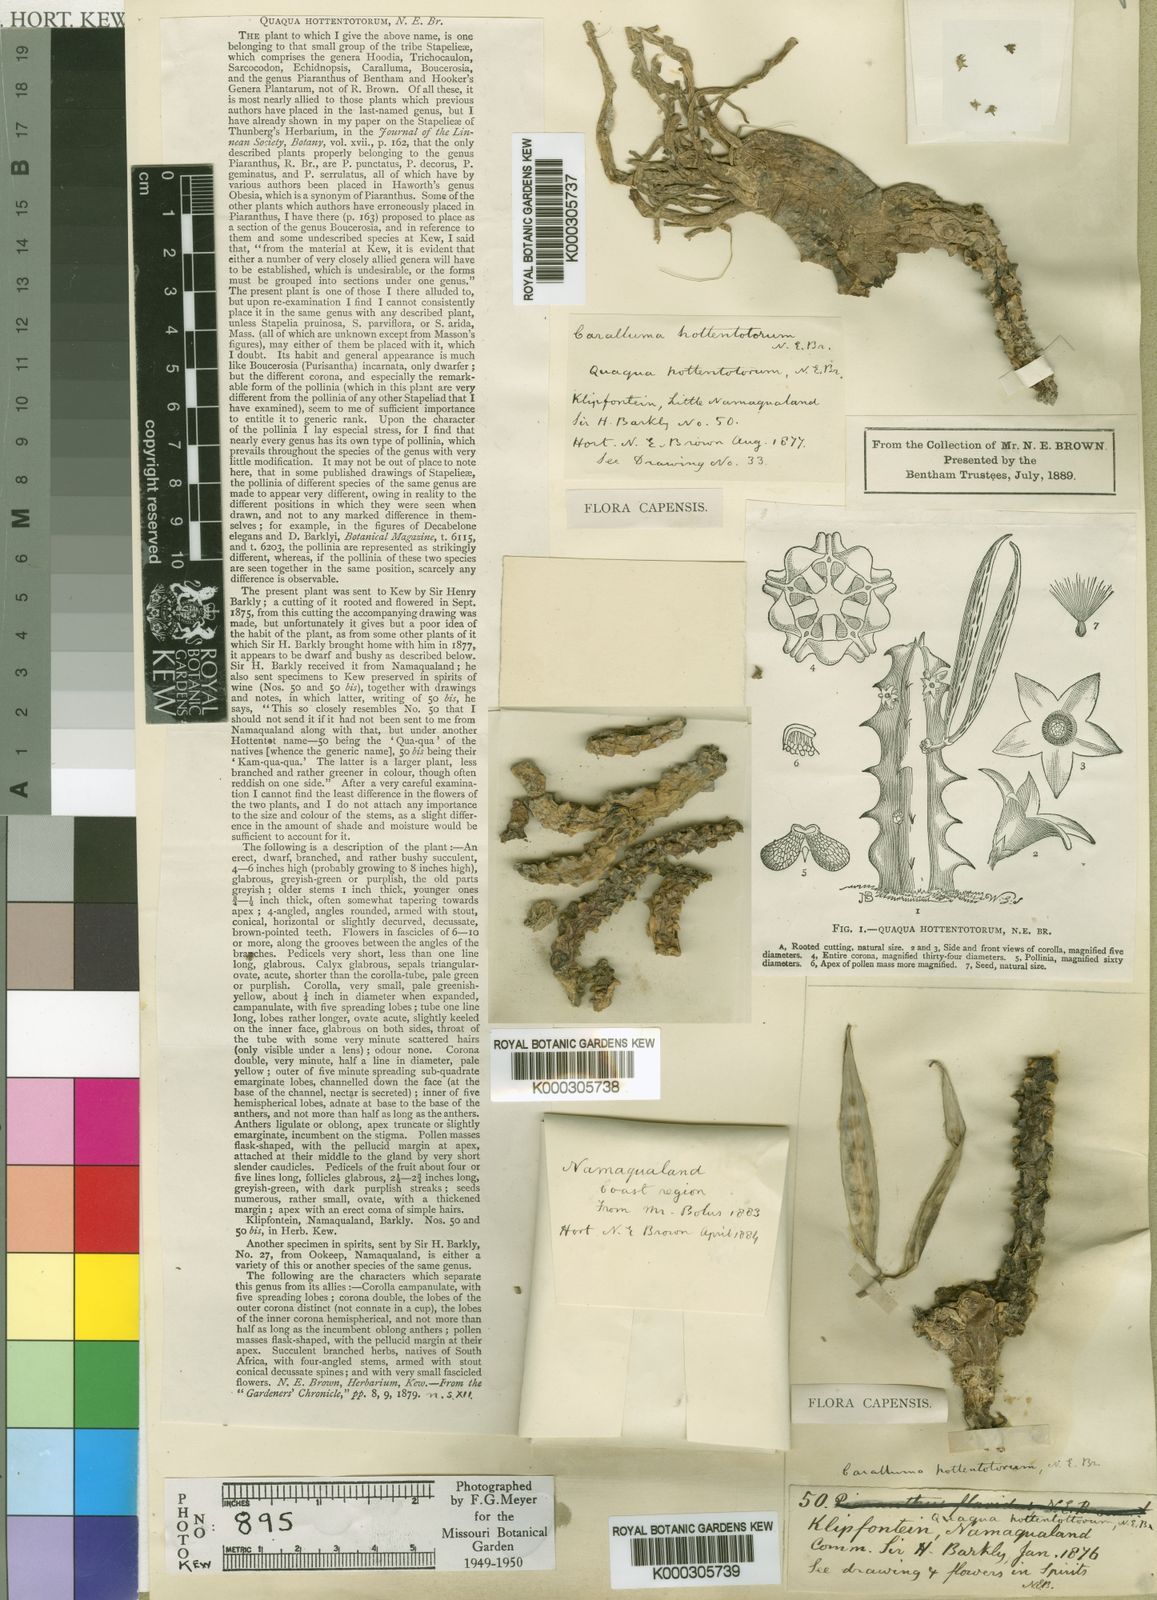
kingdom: Plantae
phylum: Tracheophyta
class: Magnoliopsida
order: Gentianales
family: Apocynaceae
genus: Ceropegia
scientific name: Ceropegia incarnata
